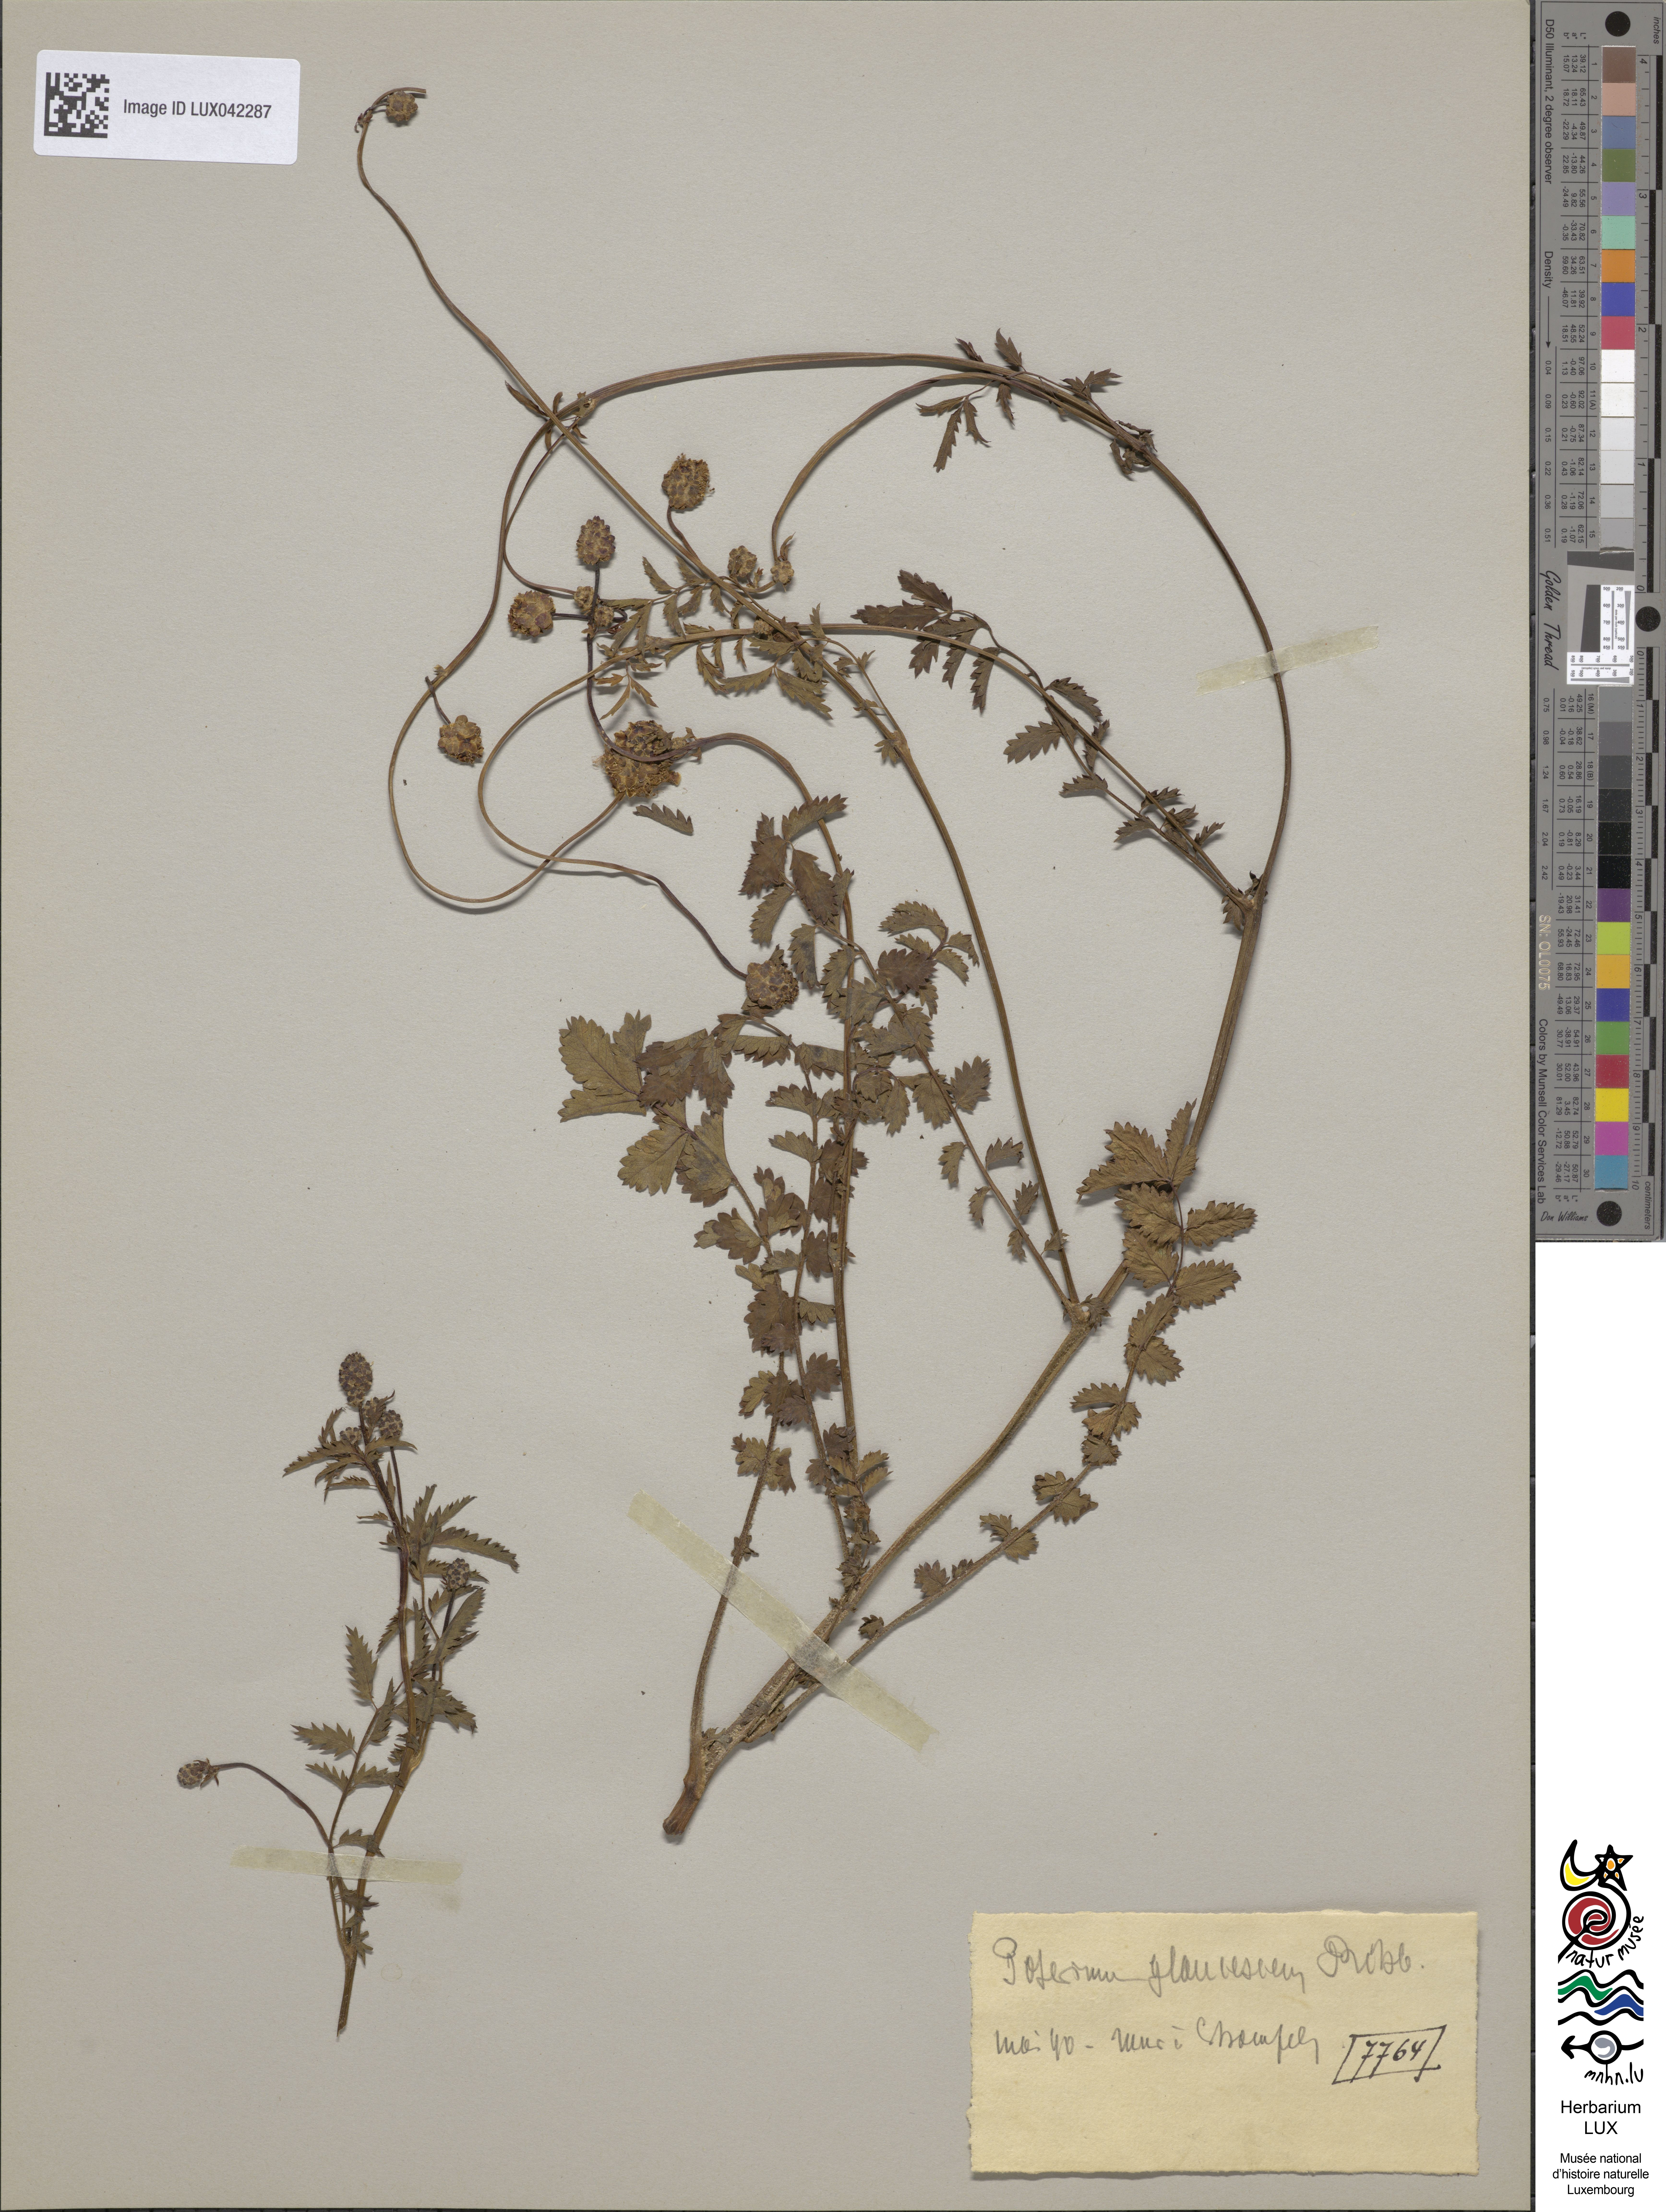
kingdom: Plantae
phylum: Tracheophyta
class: Magnoliopsida
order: Rosales
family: Rosaceae
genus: Poterium
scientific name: Poterium sanguisorba
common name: Salad burnet
